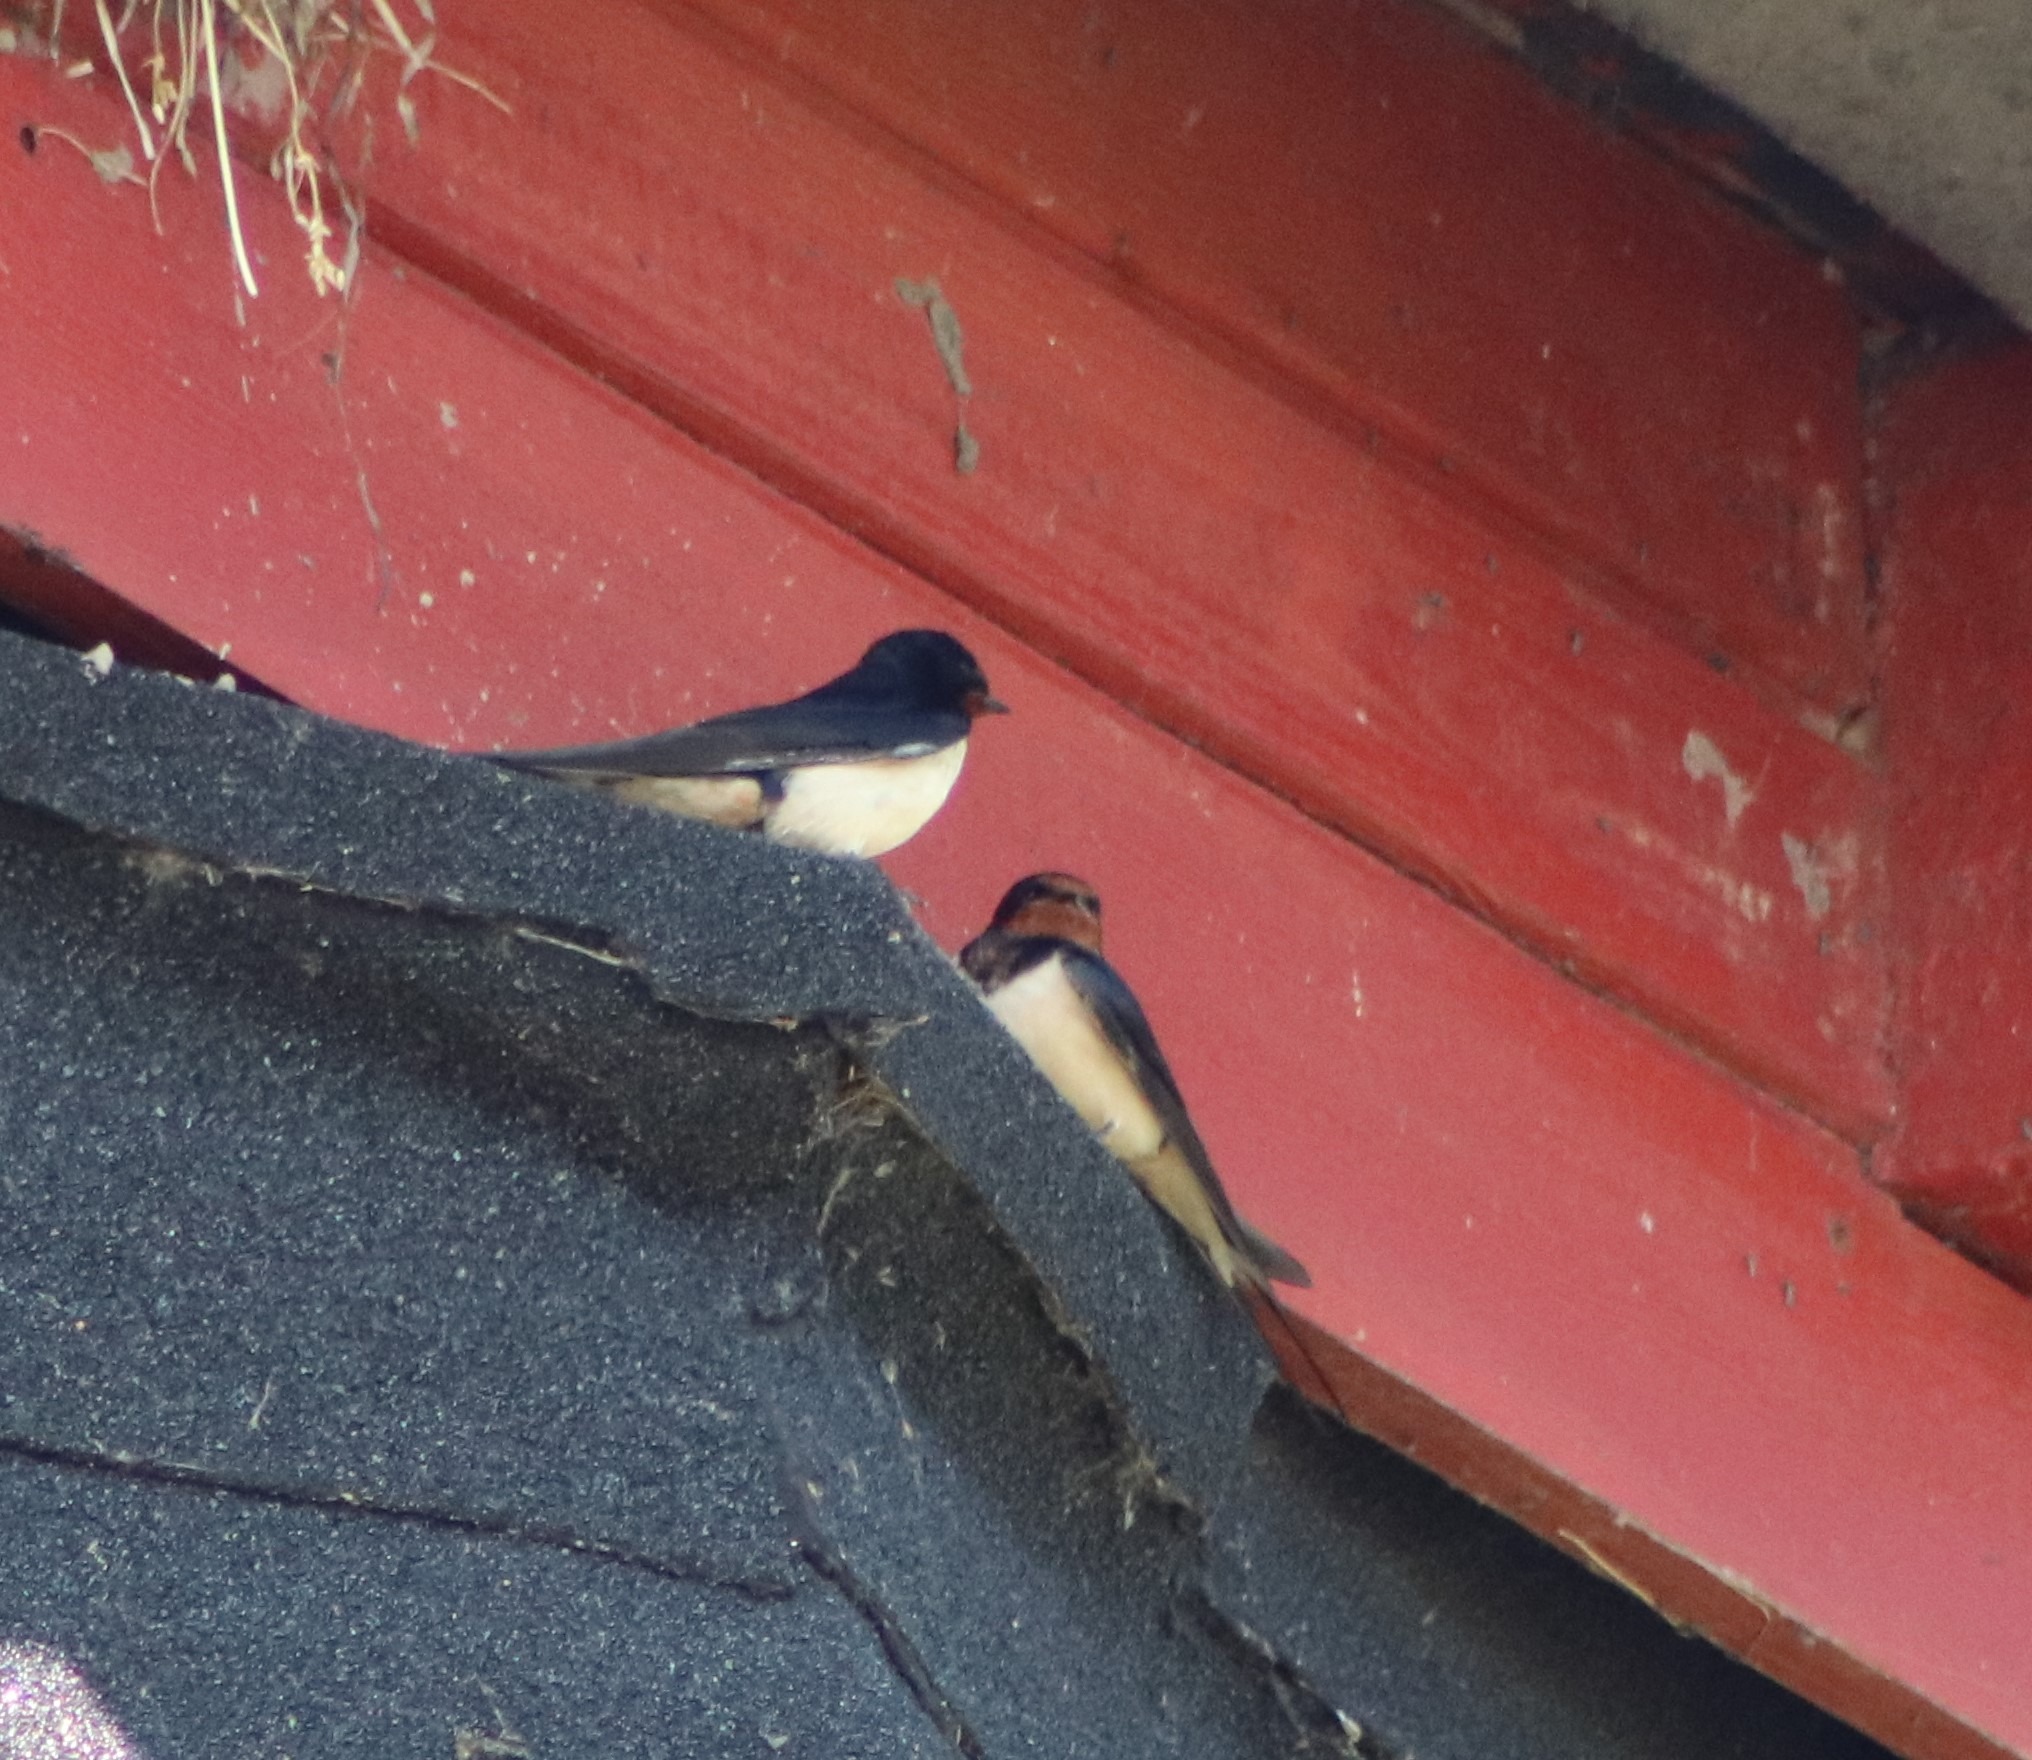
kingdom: Animalia
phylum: Chordata
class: Aves
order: Passeriformes
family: Hirundinidae
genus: Hirundo
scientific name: Hirundo rustica
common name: Landsvale
